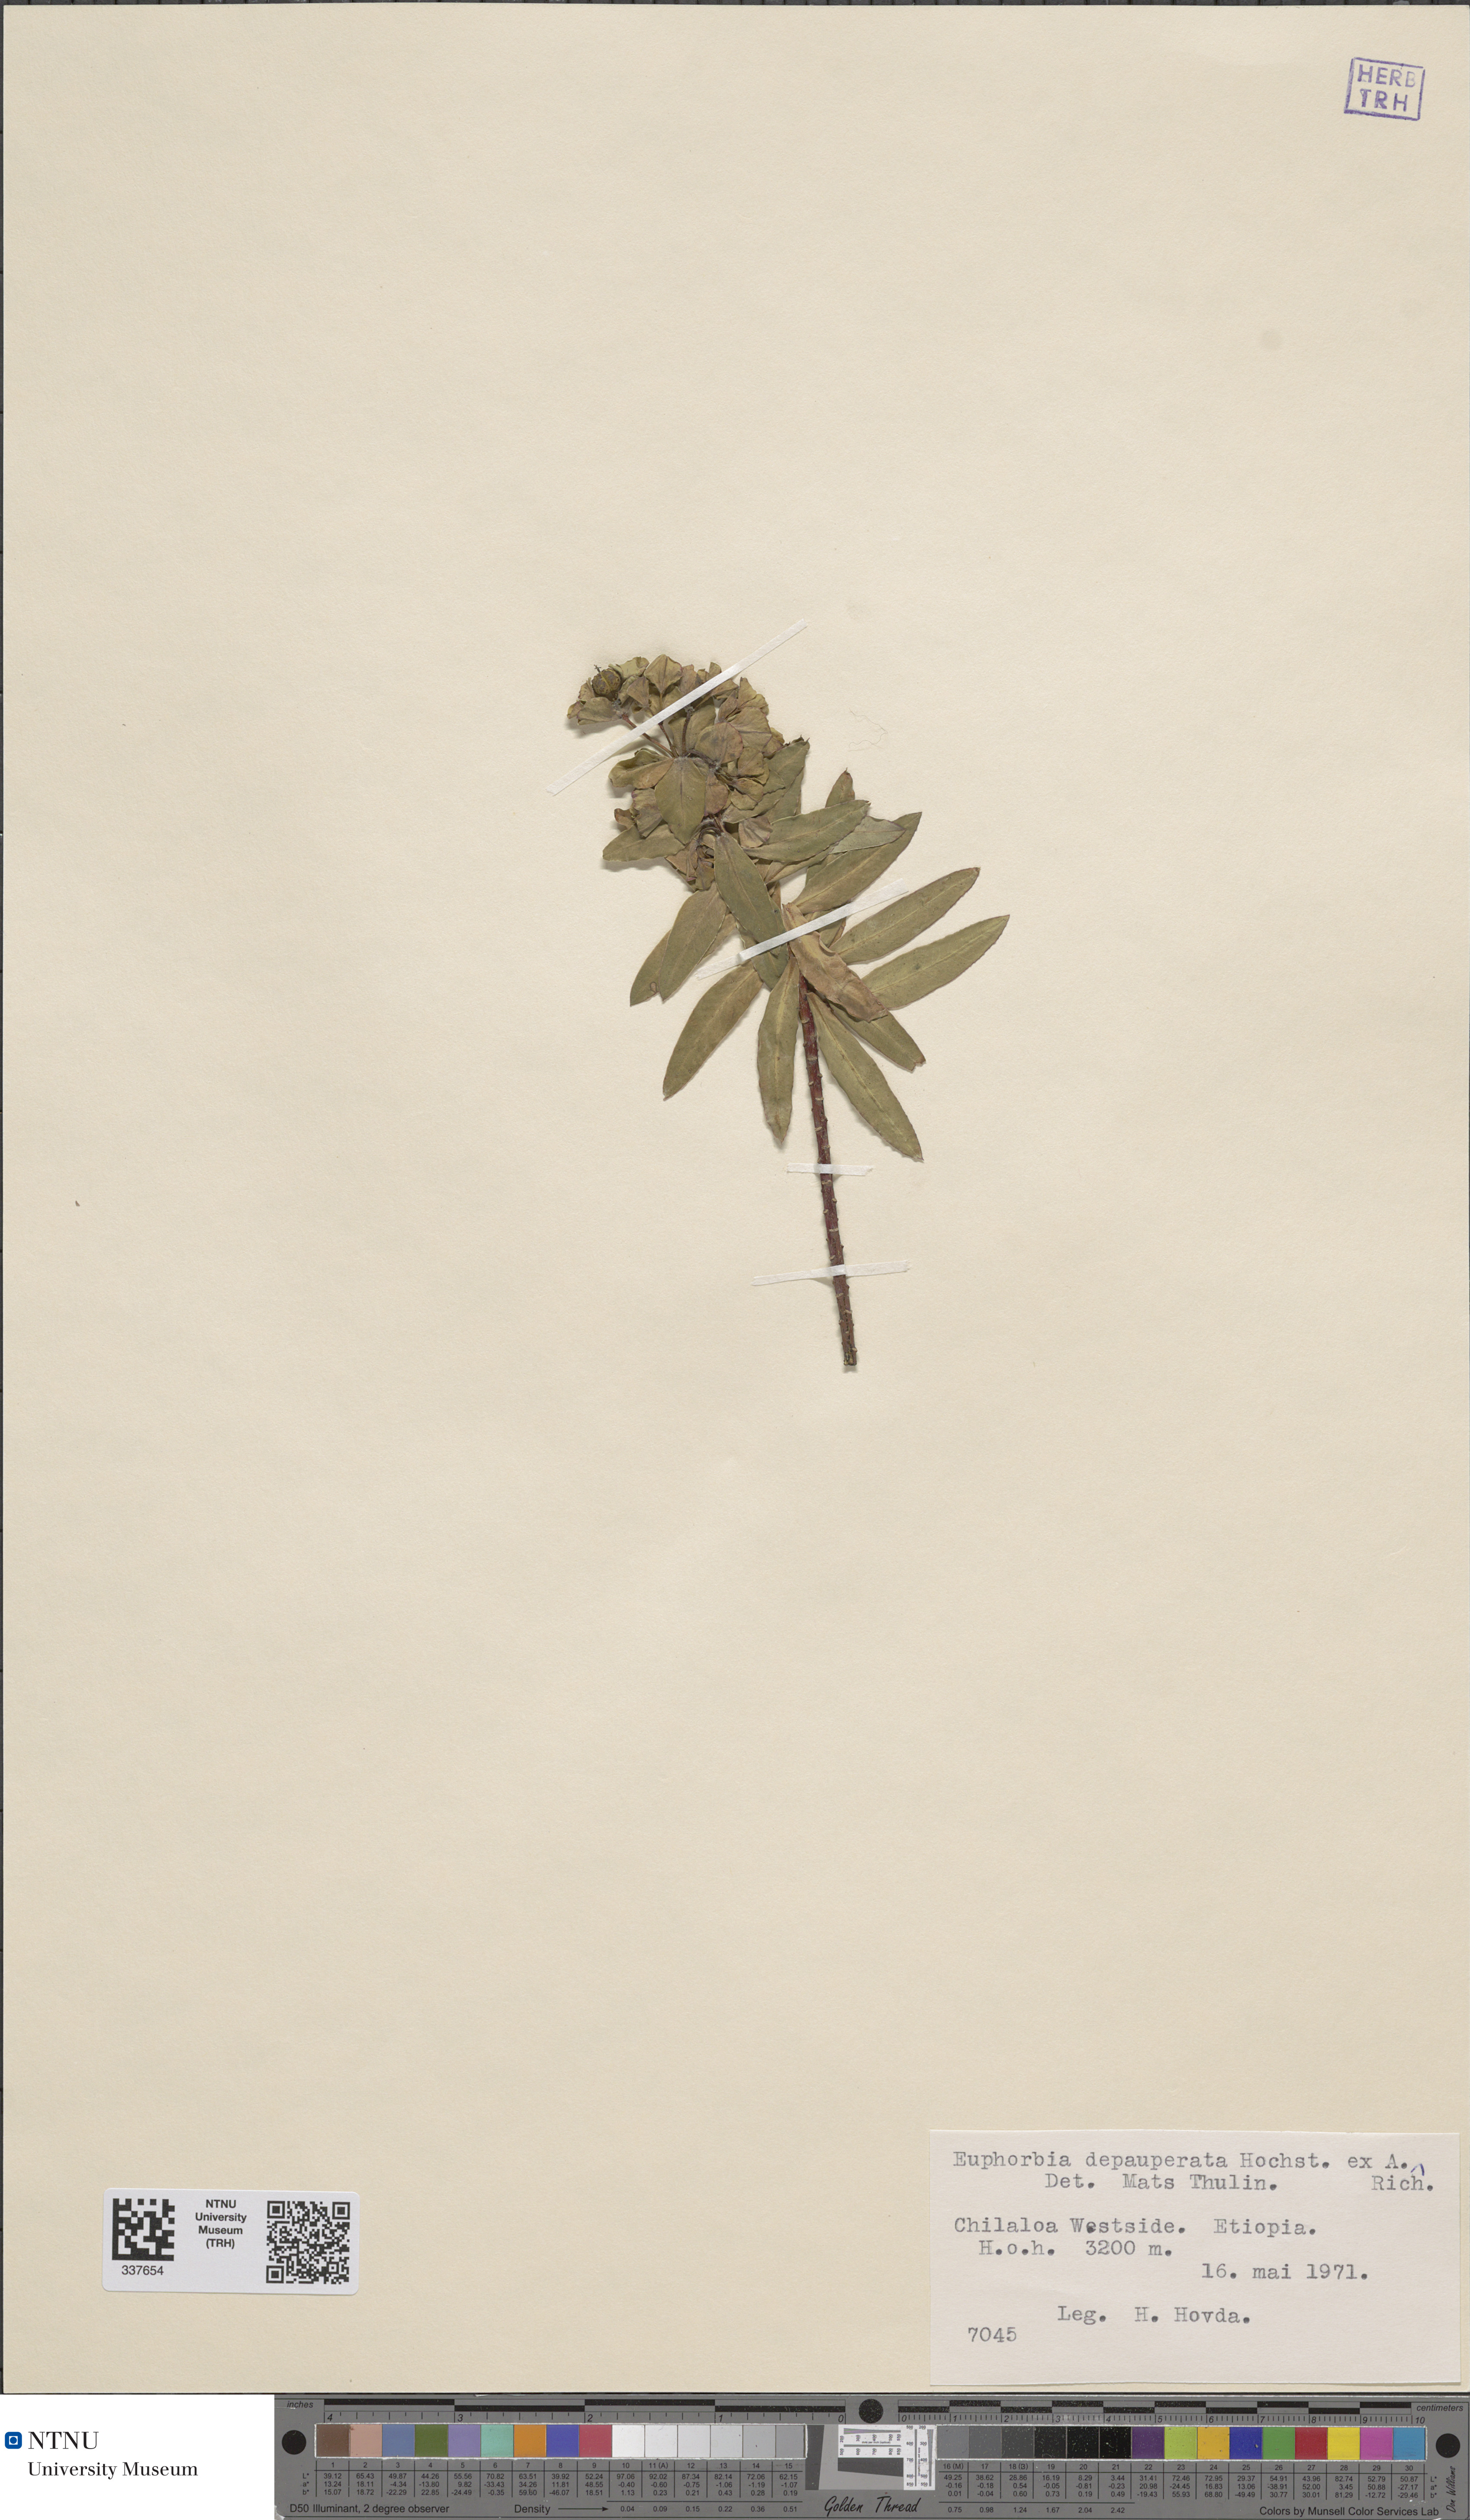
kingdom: Plantae
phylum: Tracheophyta
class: Magnoliopsida
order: Malpighiales
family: Euphorbiaceae
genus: Euphorbia
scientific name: Euphorbia depauperata
